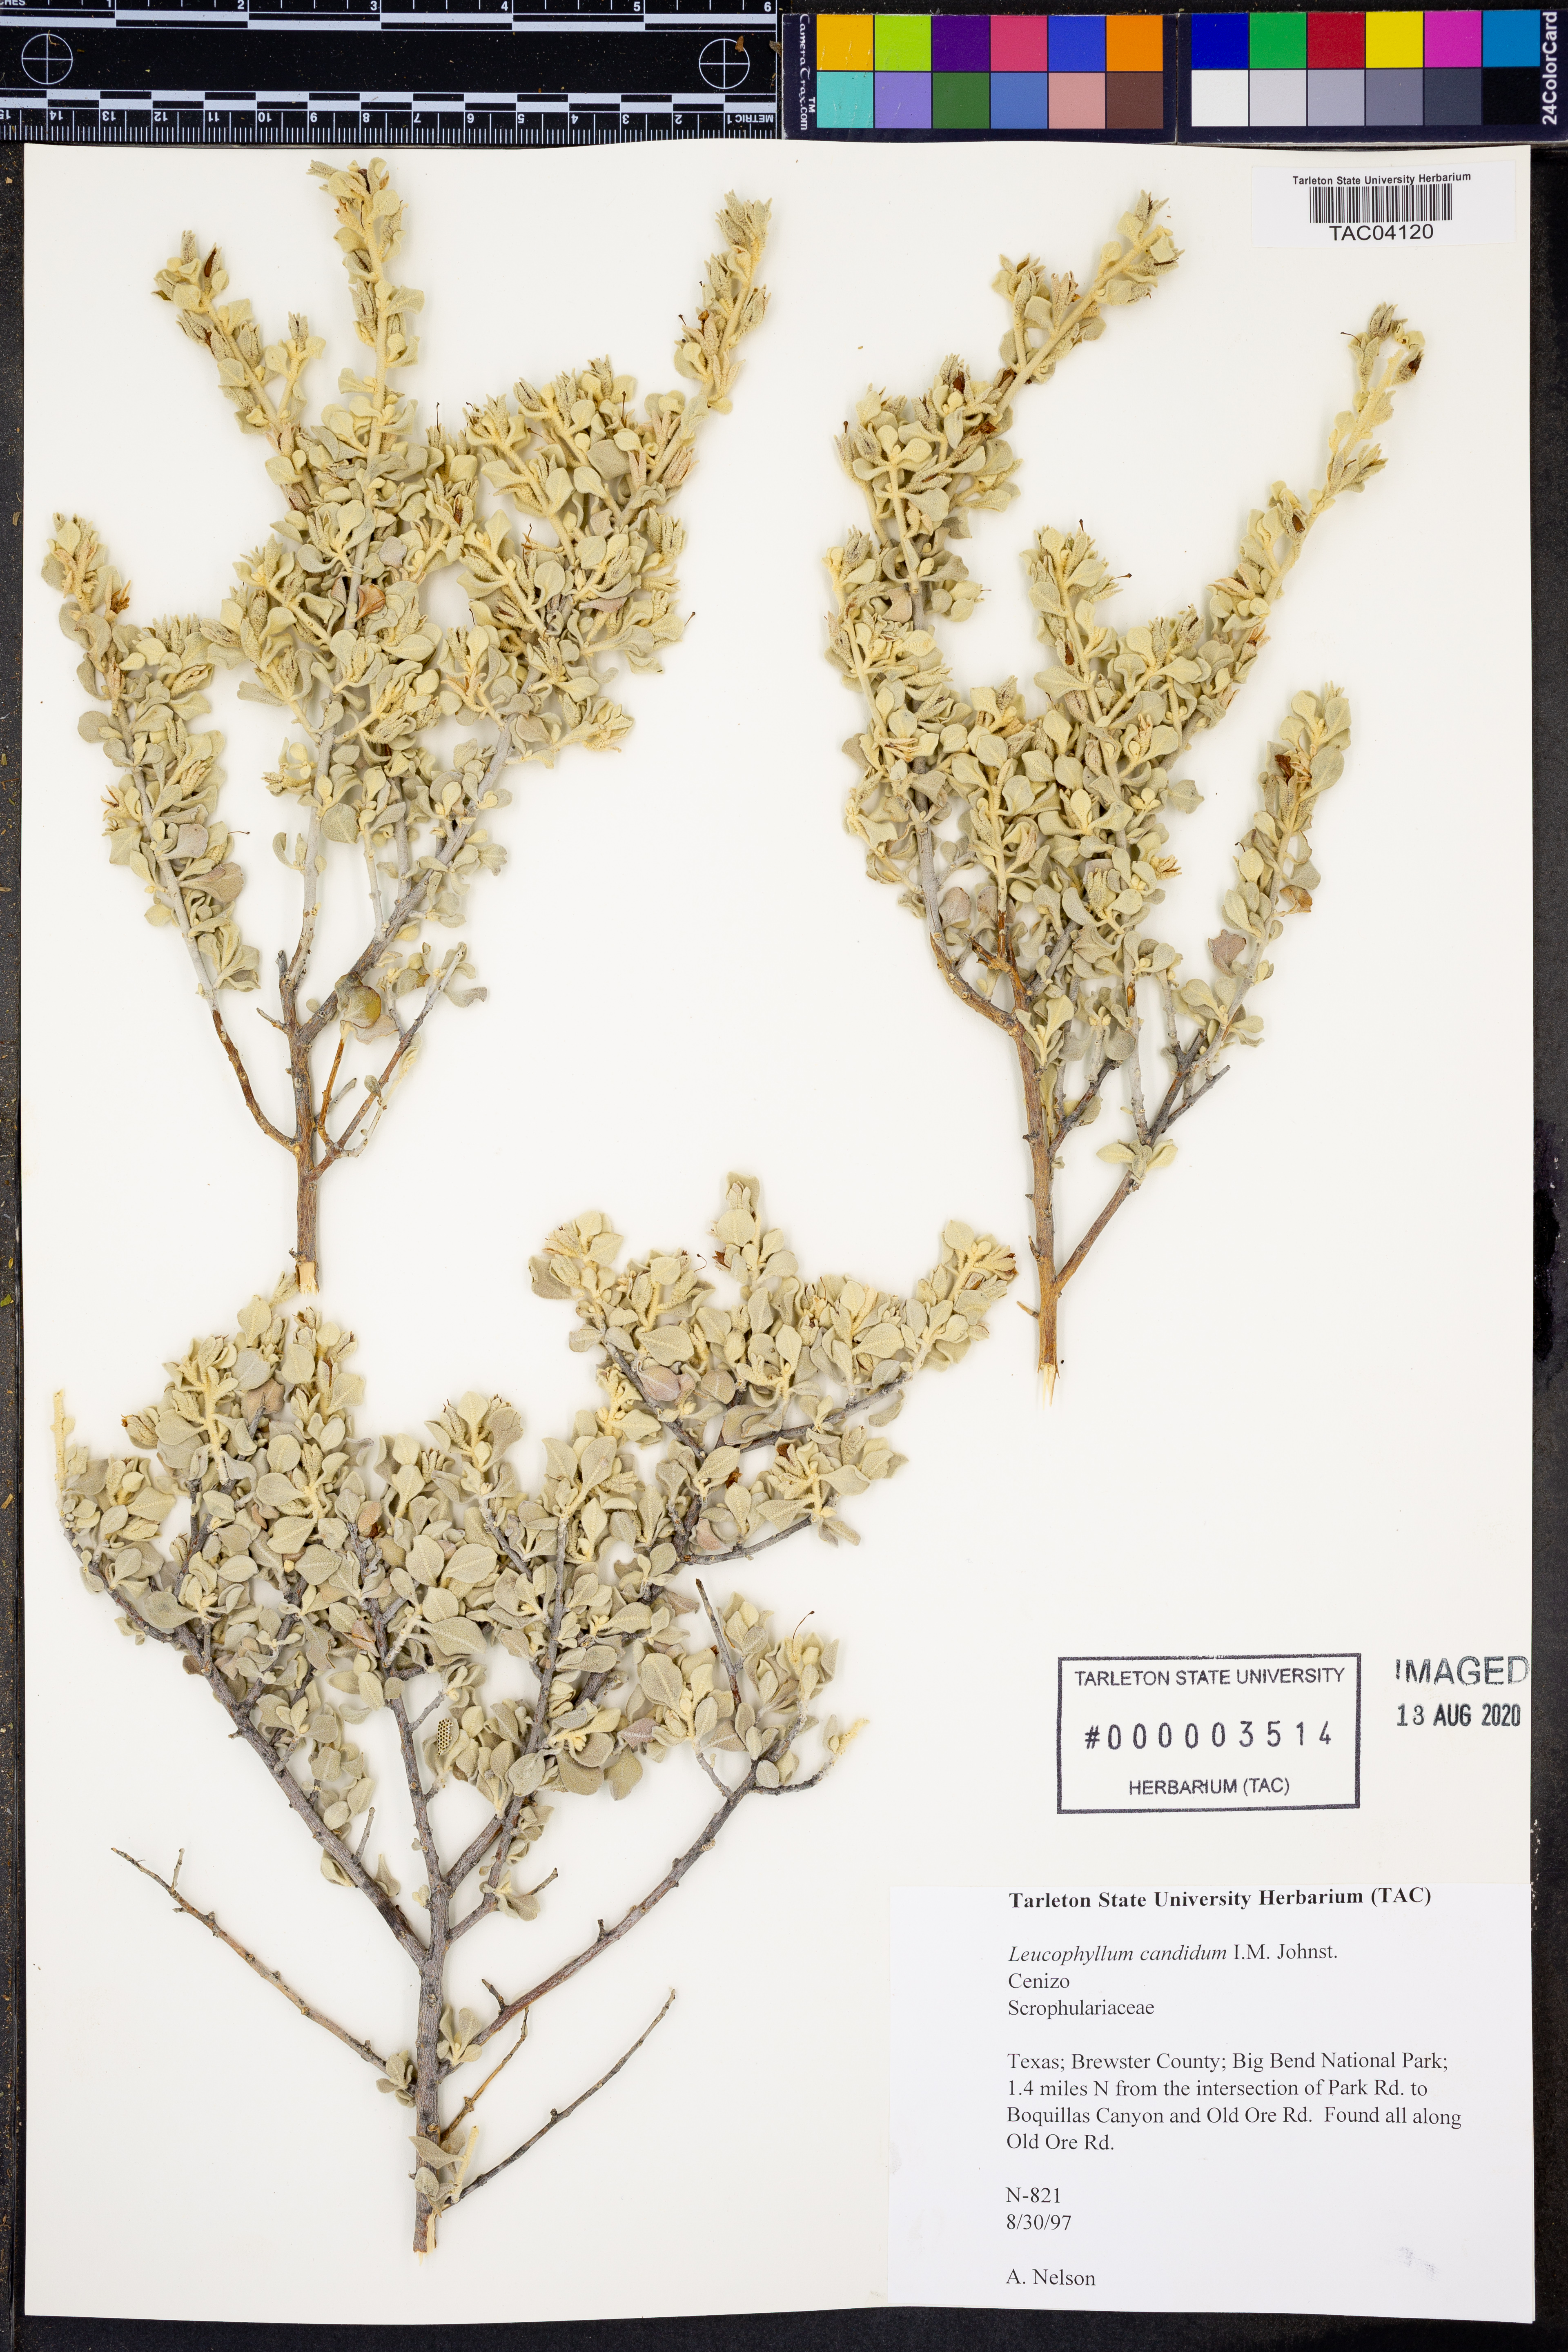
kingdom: Plantae
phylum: Tracheophyta
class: Magnoliopsida
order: Lamiales
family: Scrophulariaceae
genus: Leucophyllum
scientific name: Leucophyllum candidum
